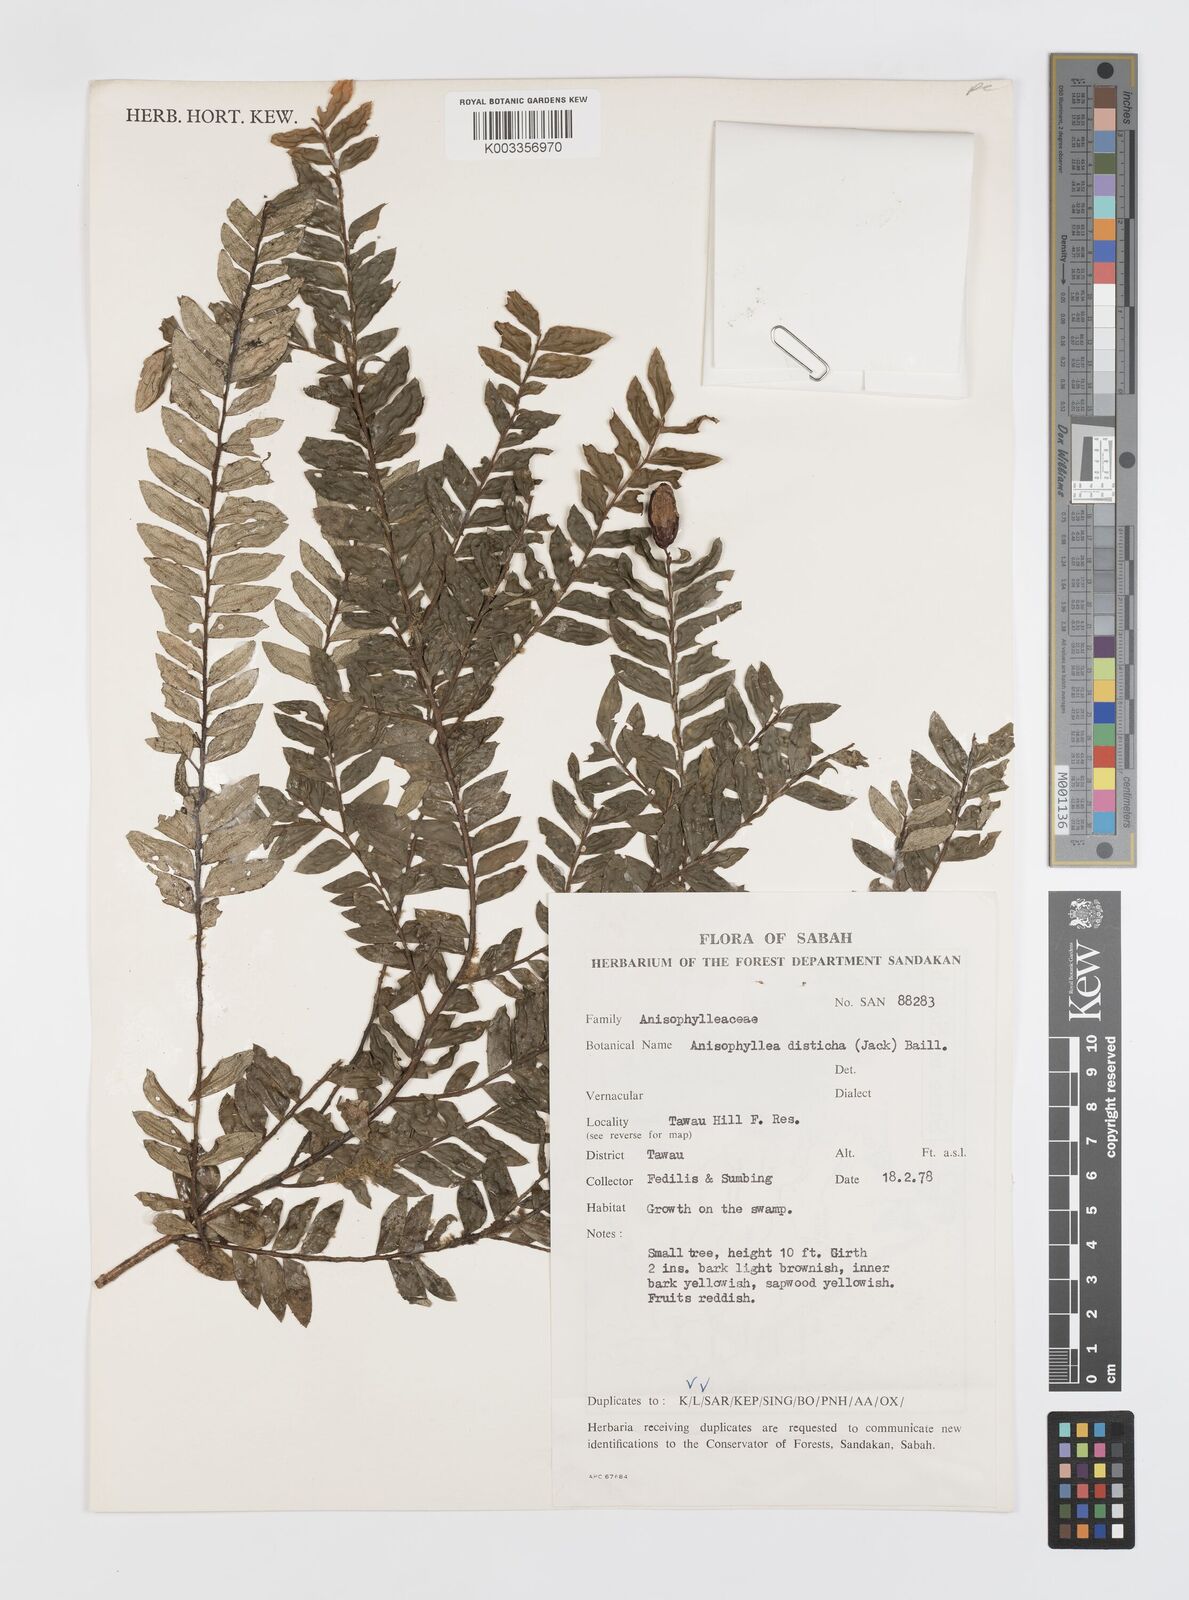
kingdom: Plantae
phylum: Tracheophyta
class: Magnoliopsida
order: Cucurbitales
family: Anisophylleaceae
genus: Anisophyllea
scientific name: Anisophyllea disticha
